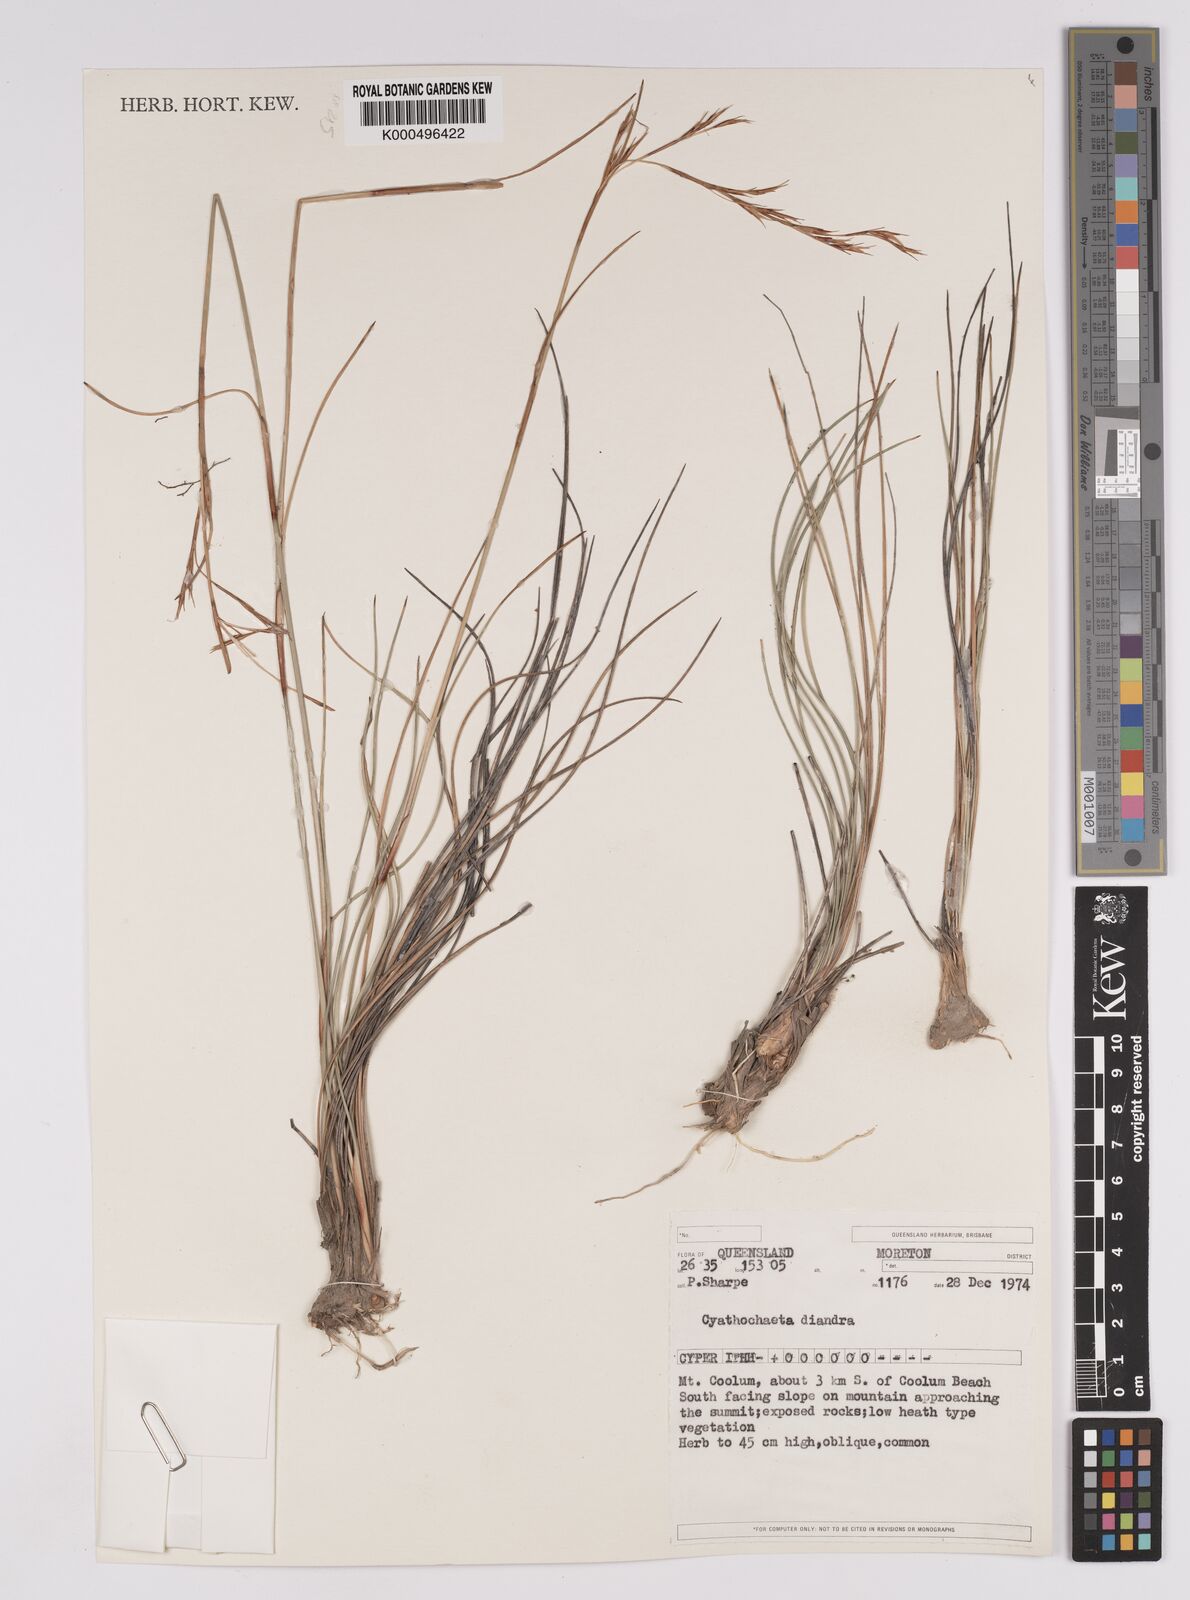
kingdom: Plantae
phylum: Tracheophyta
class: Liliopsida
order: Poales
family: Cyperaceae
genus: Cyathochaeta
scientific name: Cyathochaeta diandra
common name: Sheath rush
